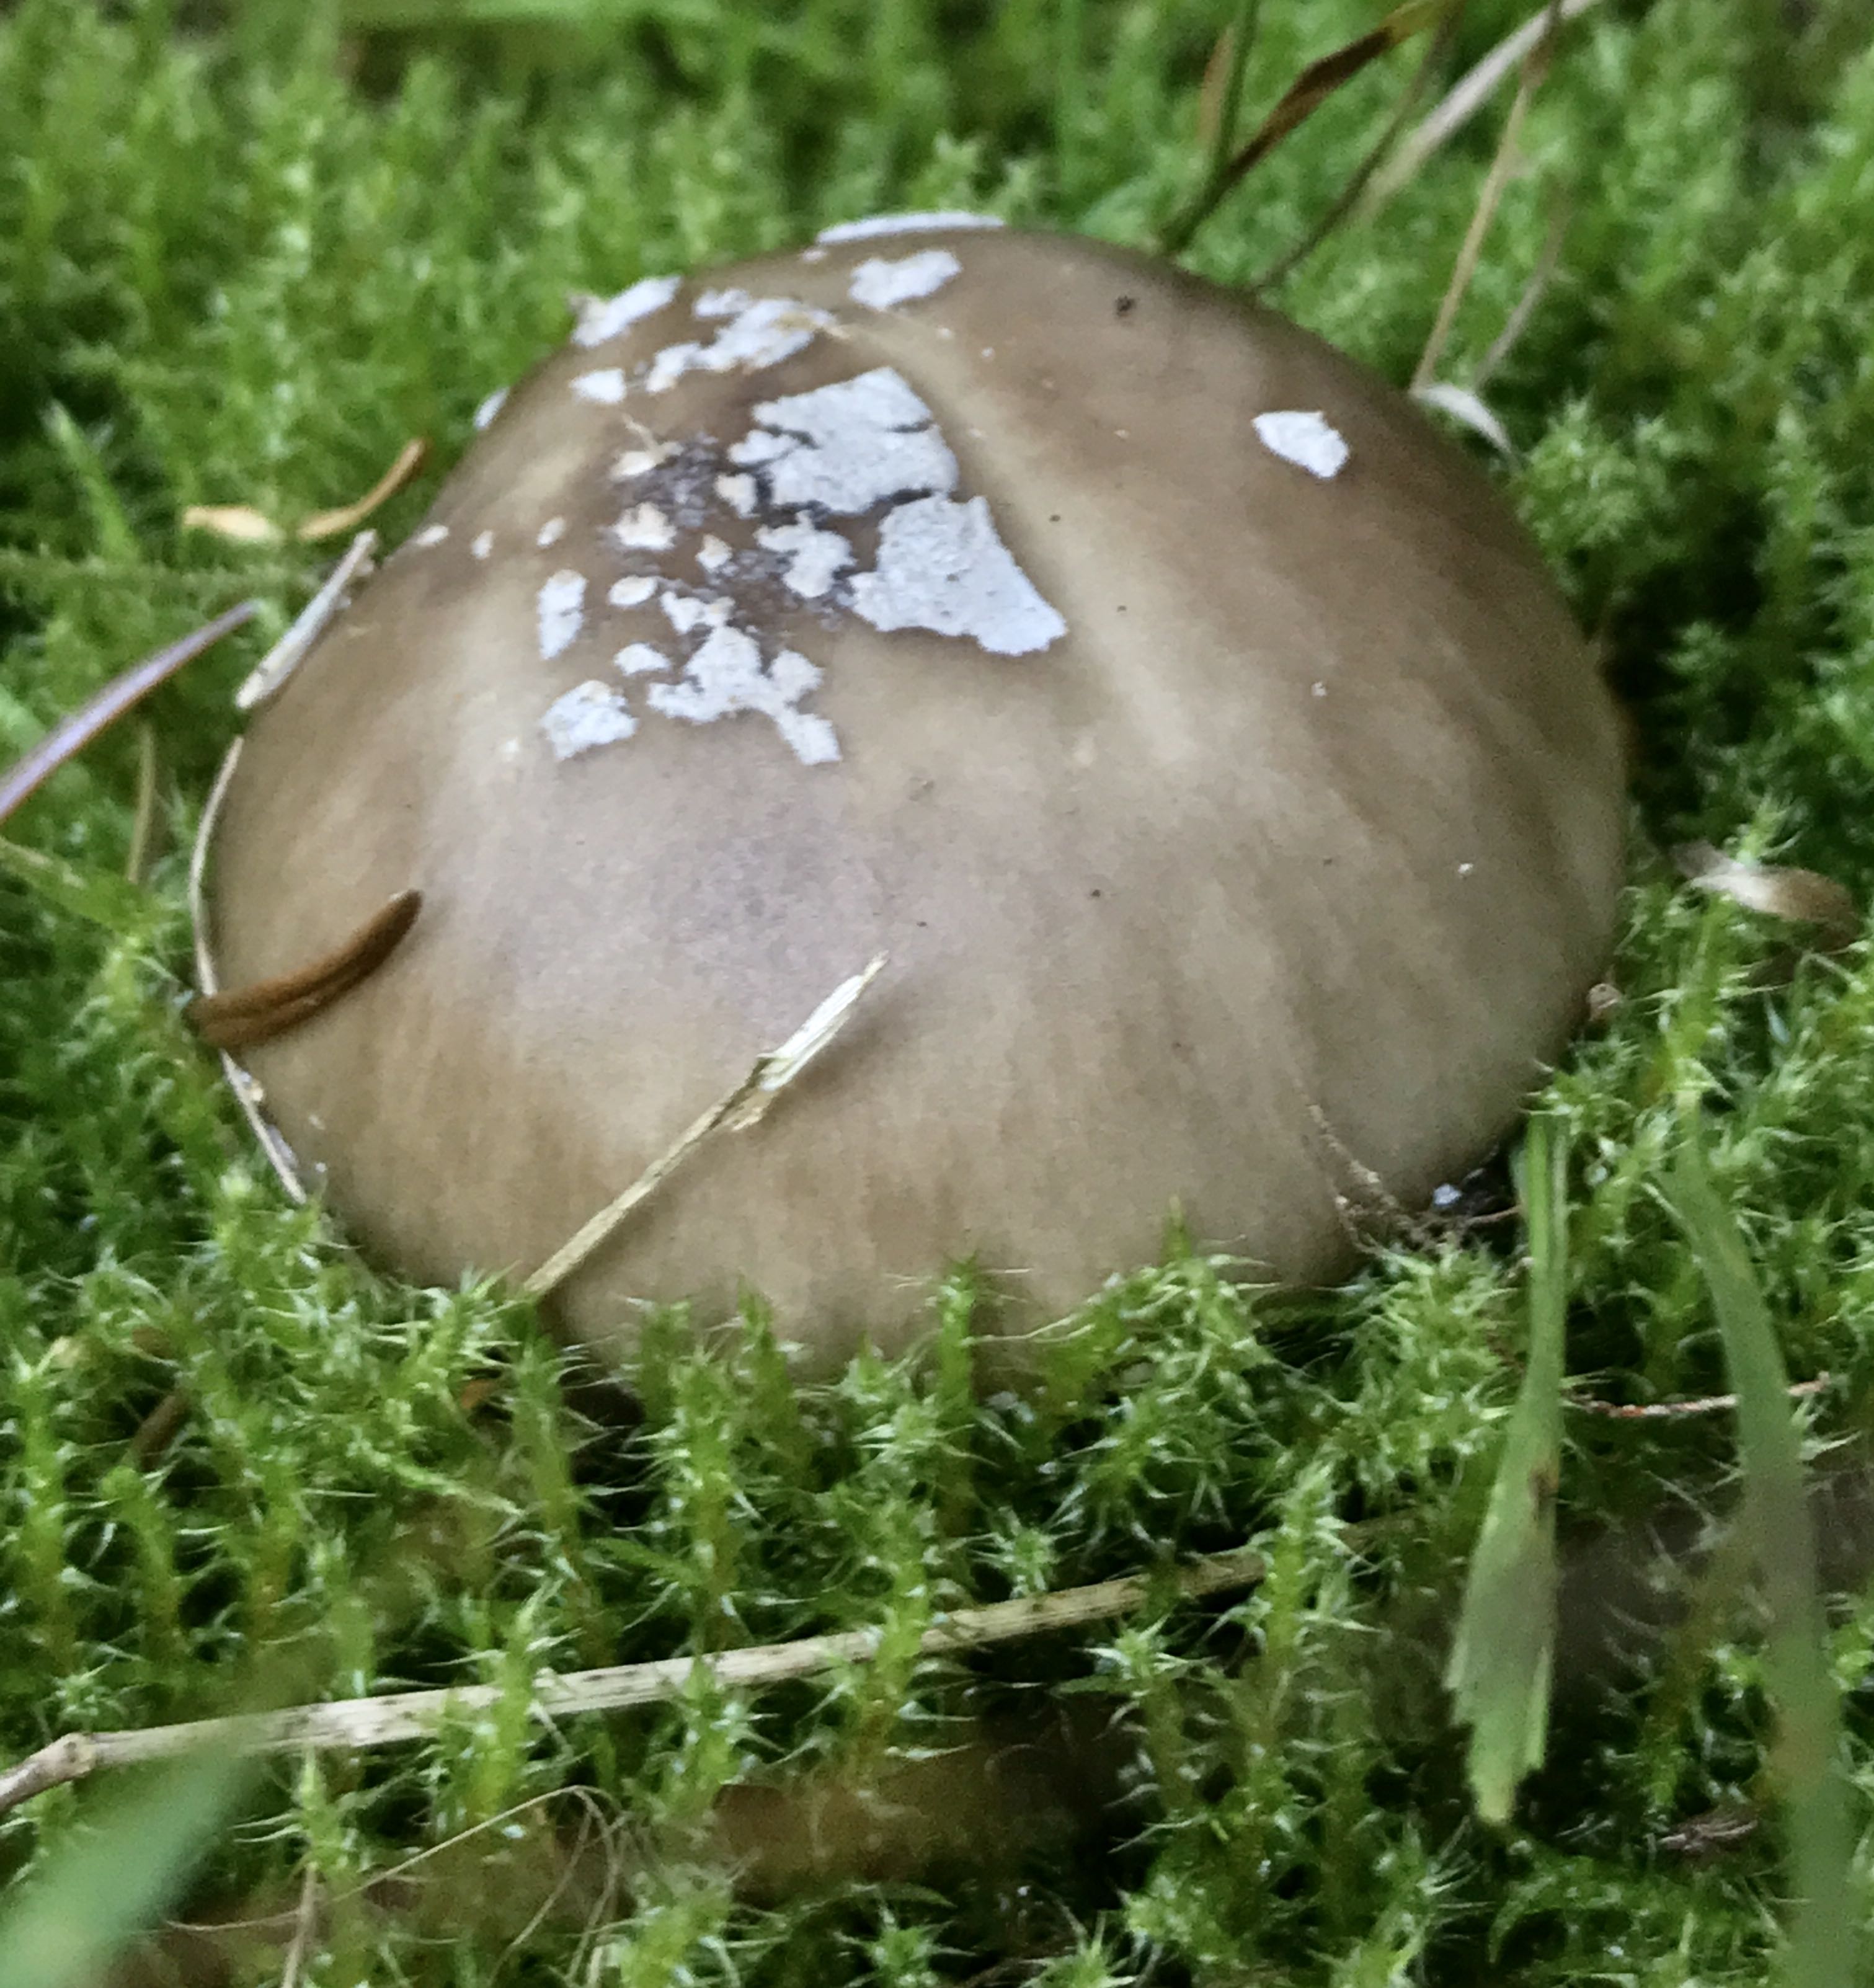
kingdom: Fungi
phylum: Basidiomycota
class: Agaricomycetes
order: Agaricales
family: Amanitaceae
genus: Amanita
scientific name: Amanita
